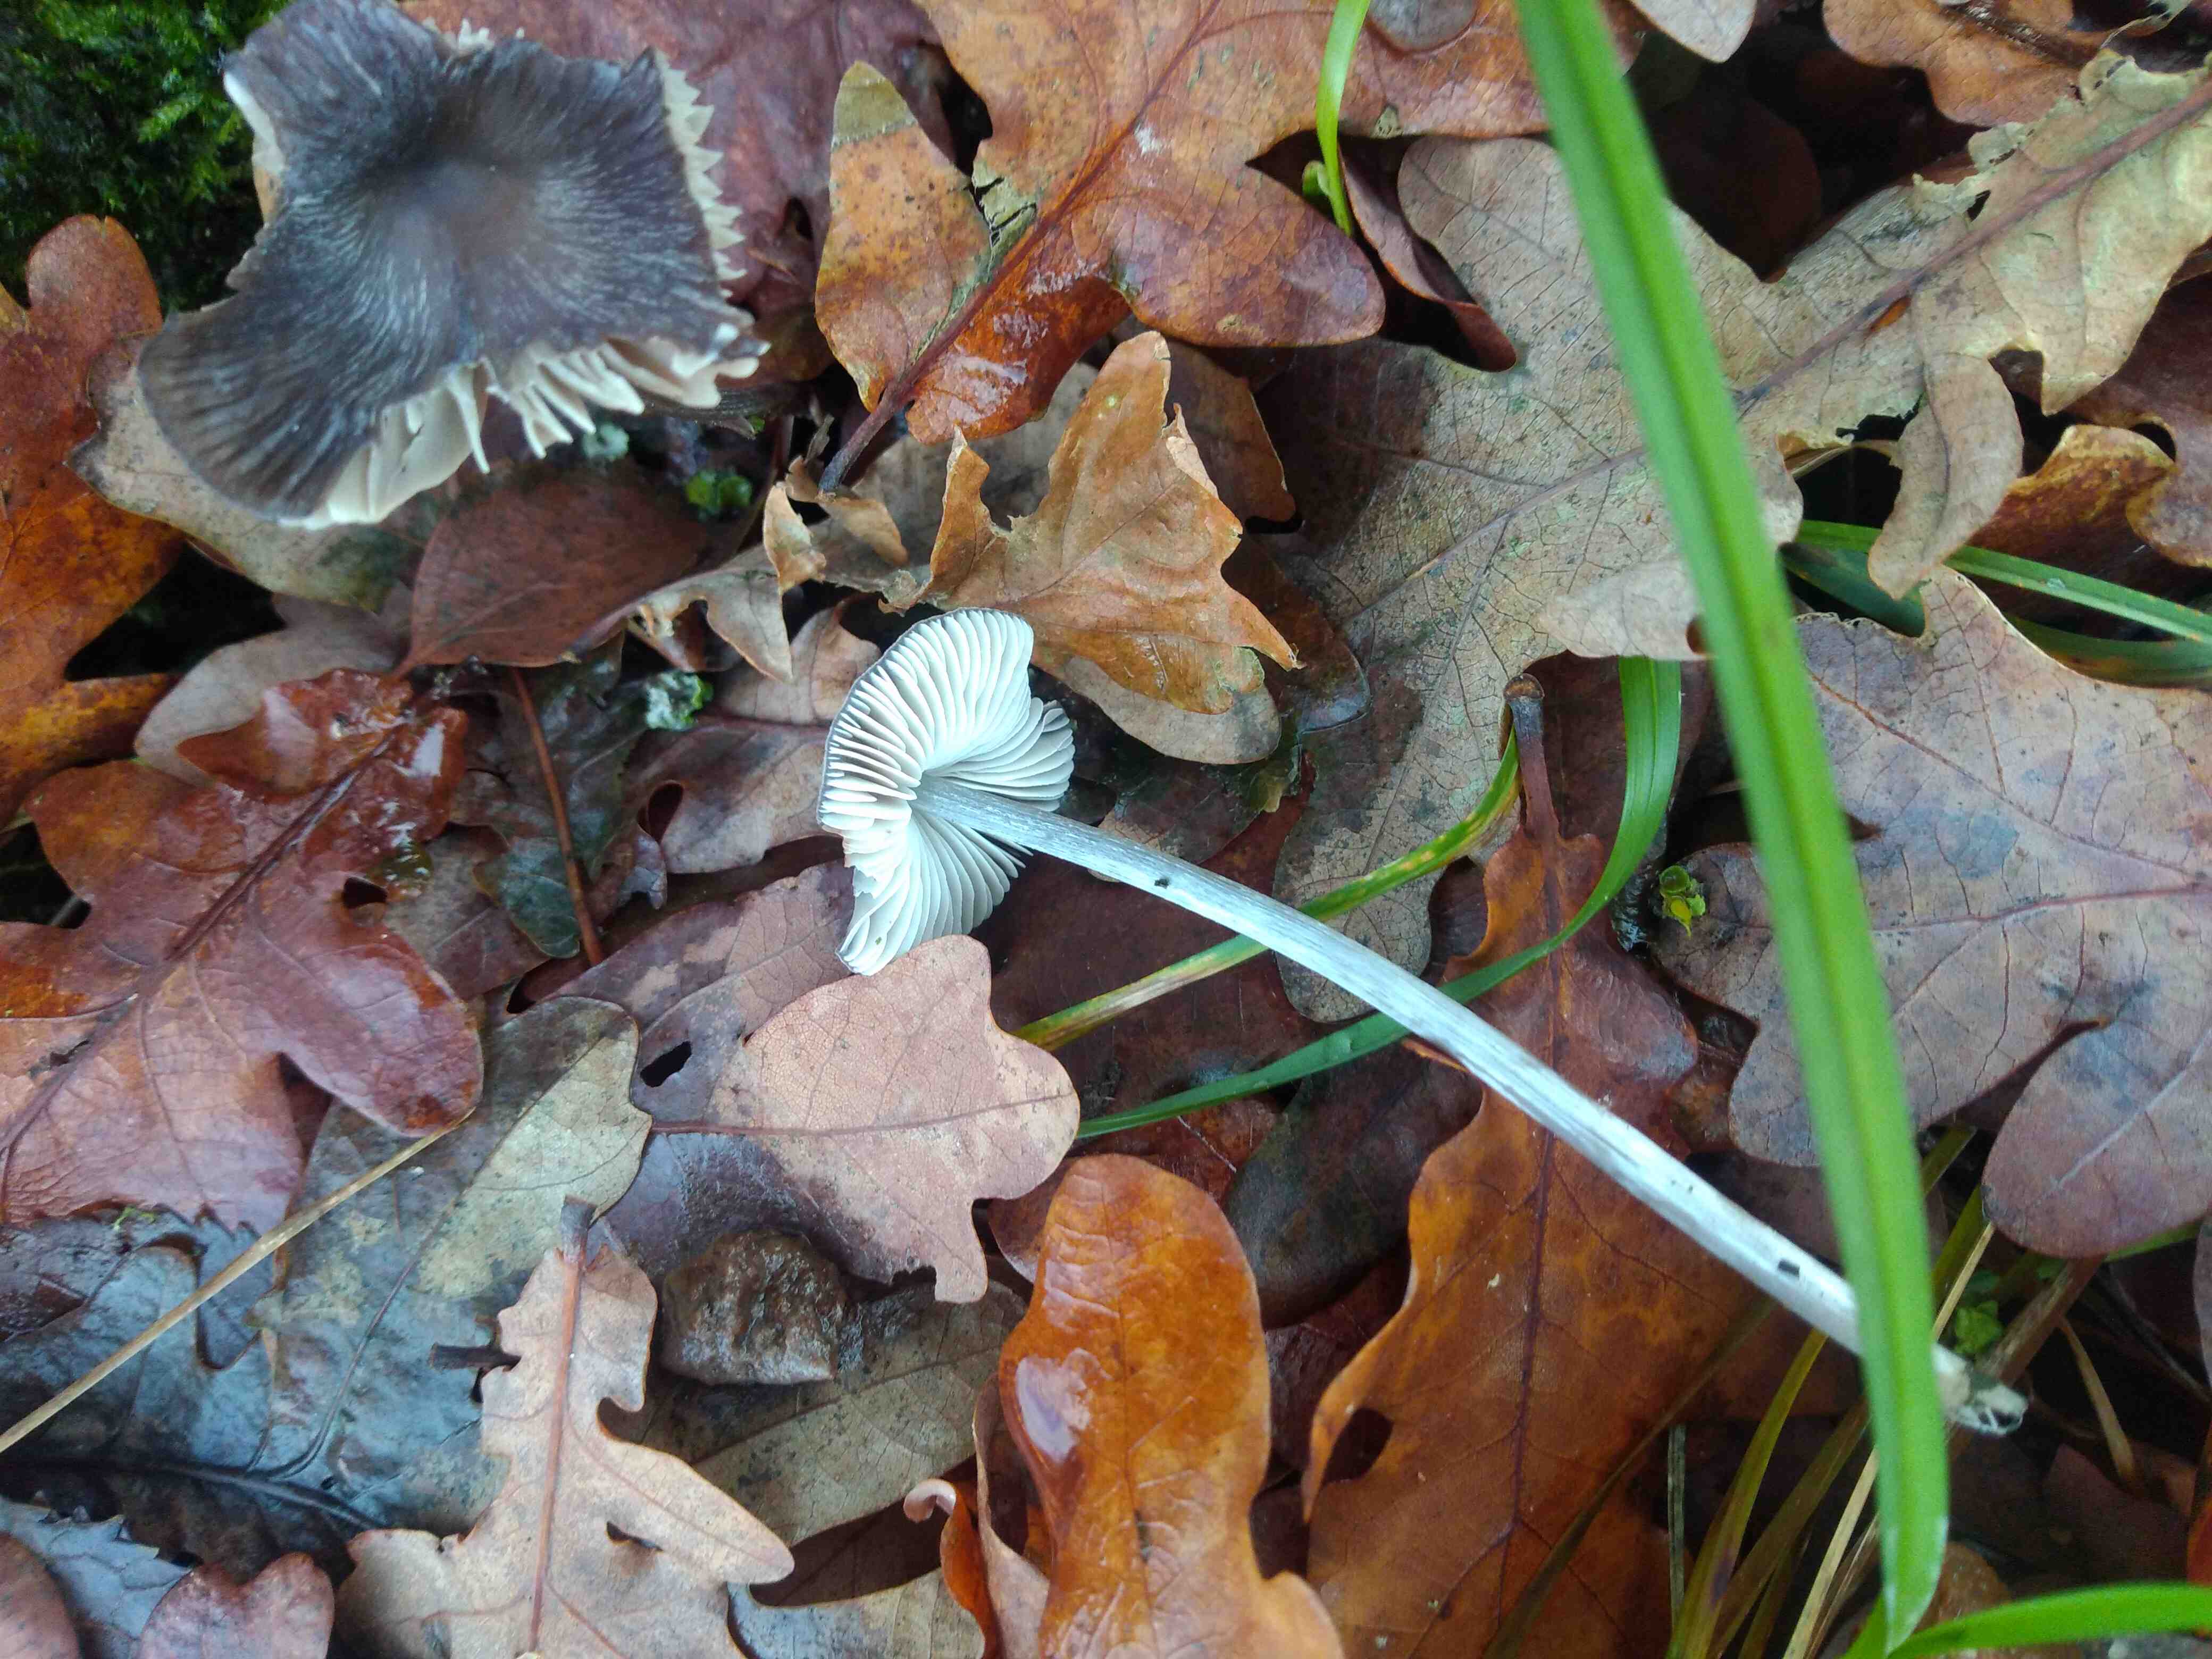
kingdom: Fungi
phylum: Basidiomycota
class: Agaricomycetes
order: Agaricales
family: Mycenaceae
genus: Mycena
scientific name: Mycena polygramma
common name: mangestribet huesvamp
